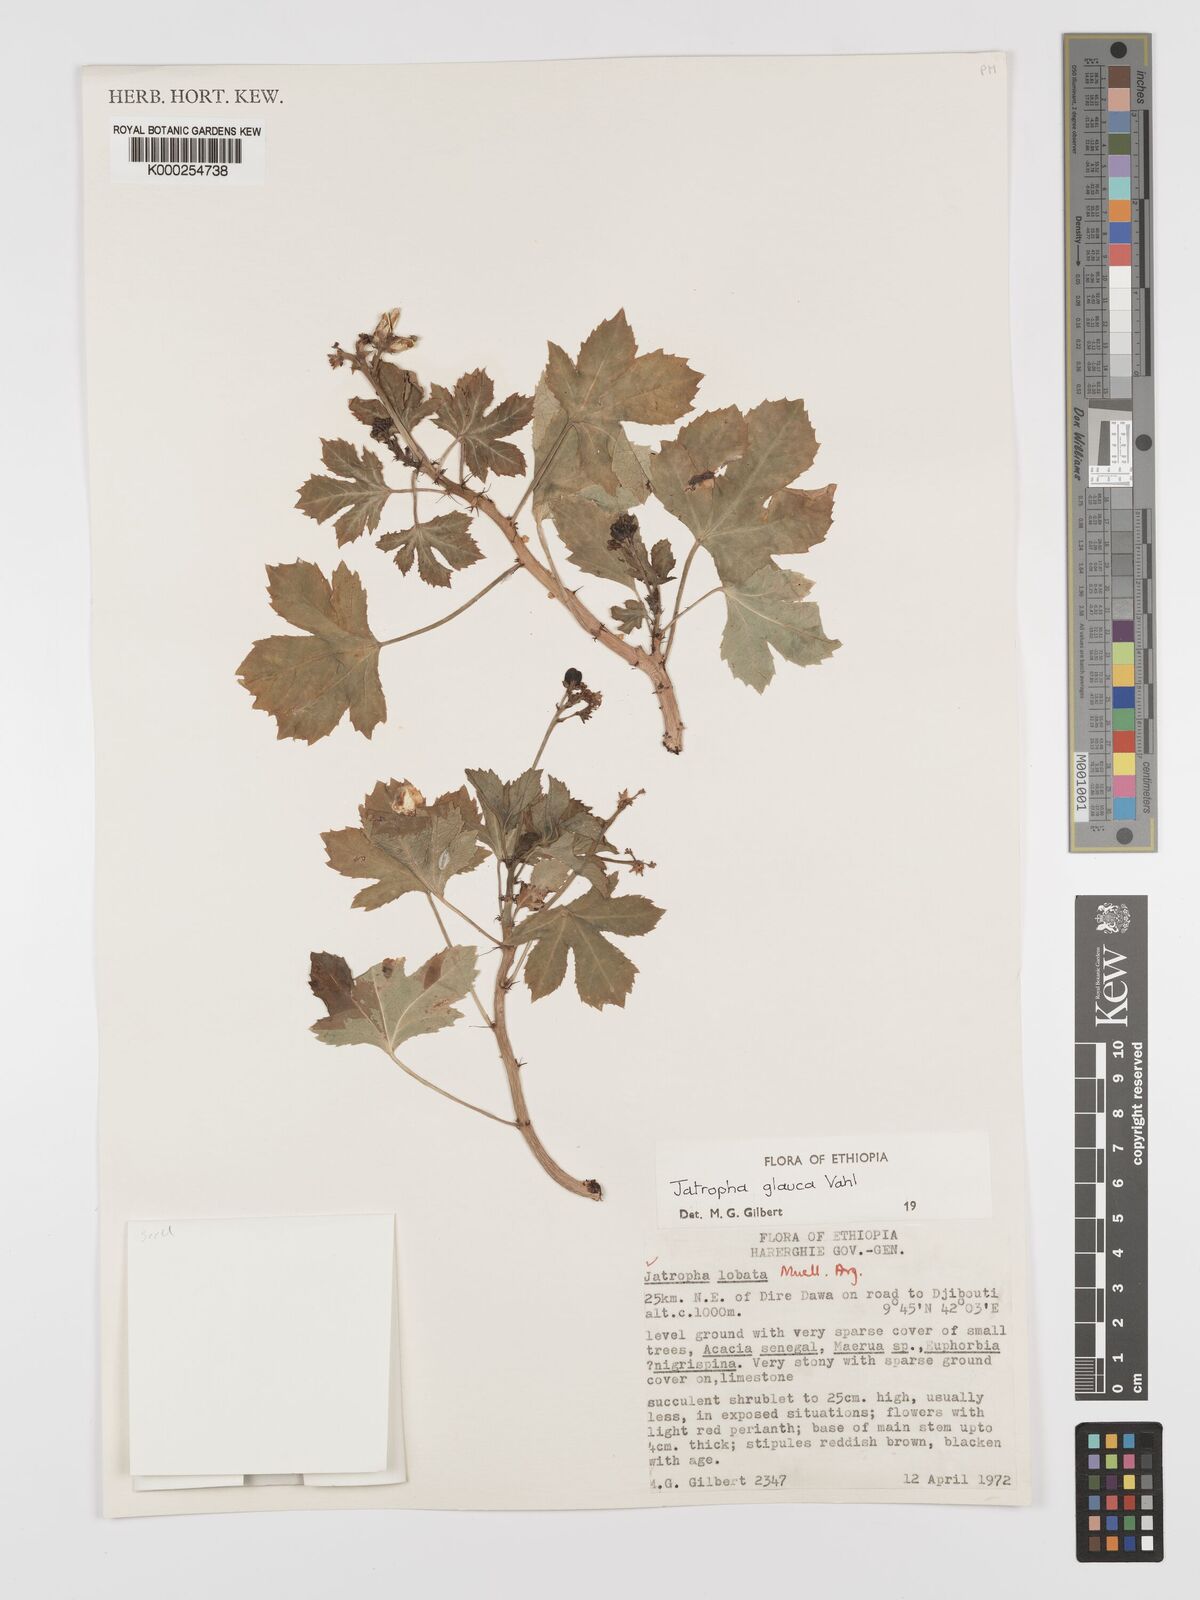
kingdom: Plantae
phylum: Tracheophyta
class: Magnoliopsida
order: Malpighiales
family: Euphorbiaceae
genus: Jatropha
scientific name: Jatropha glauca
